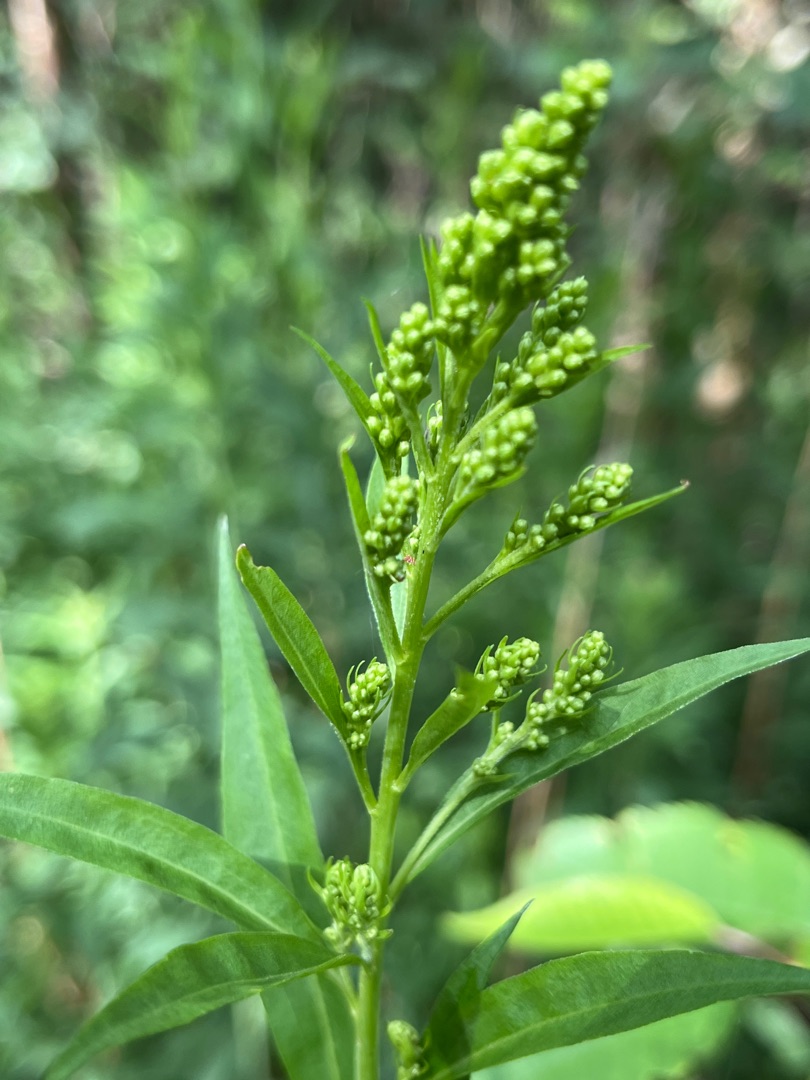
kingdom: Plantae
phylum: Tracheophyta
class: Magnoliopsida
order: Asterales
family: Asteraceae
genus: Solidago
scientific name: Solidago gigantea
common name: Sildig gyldenris
